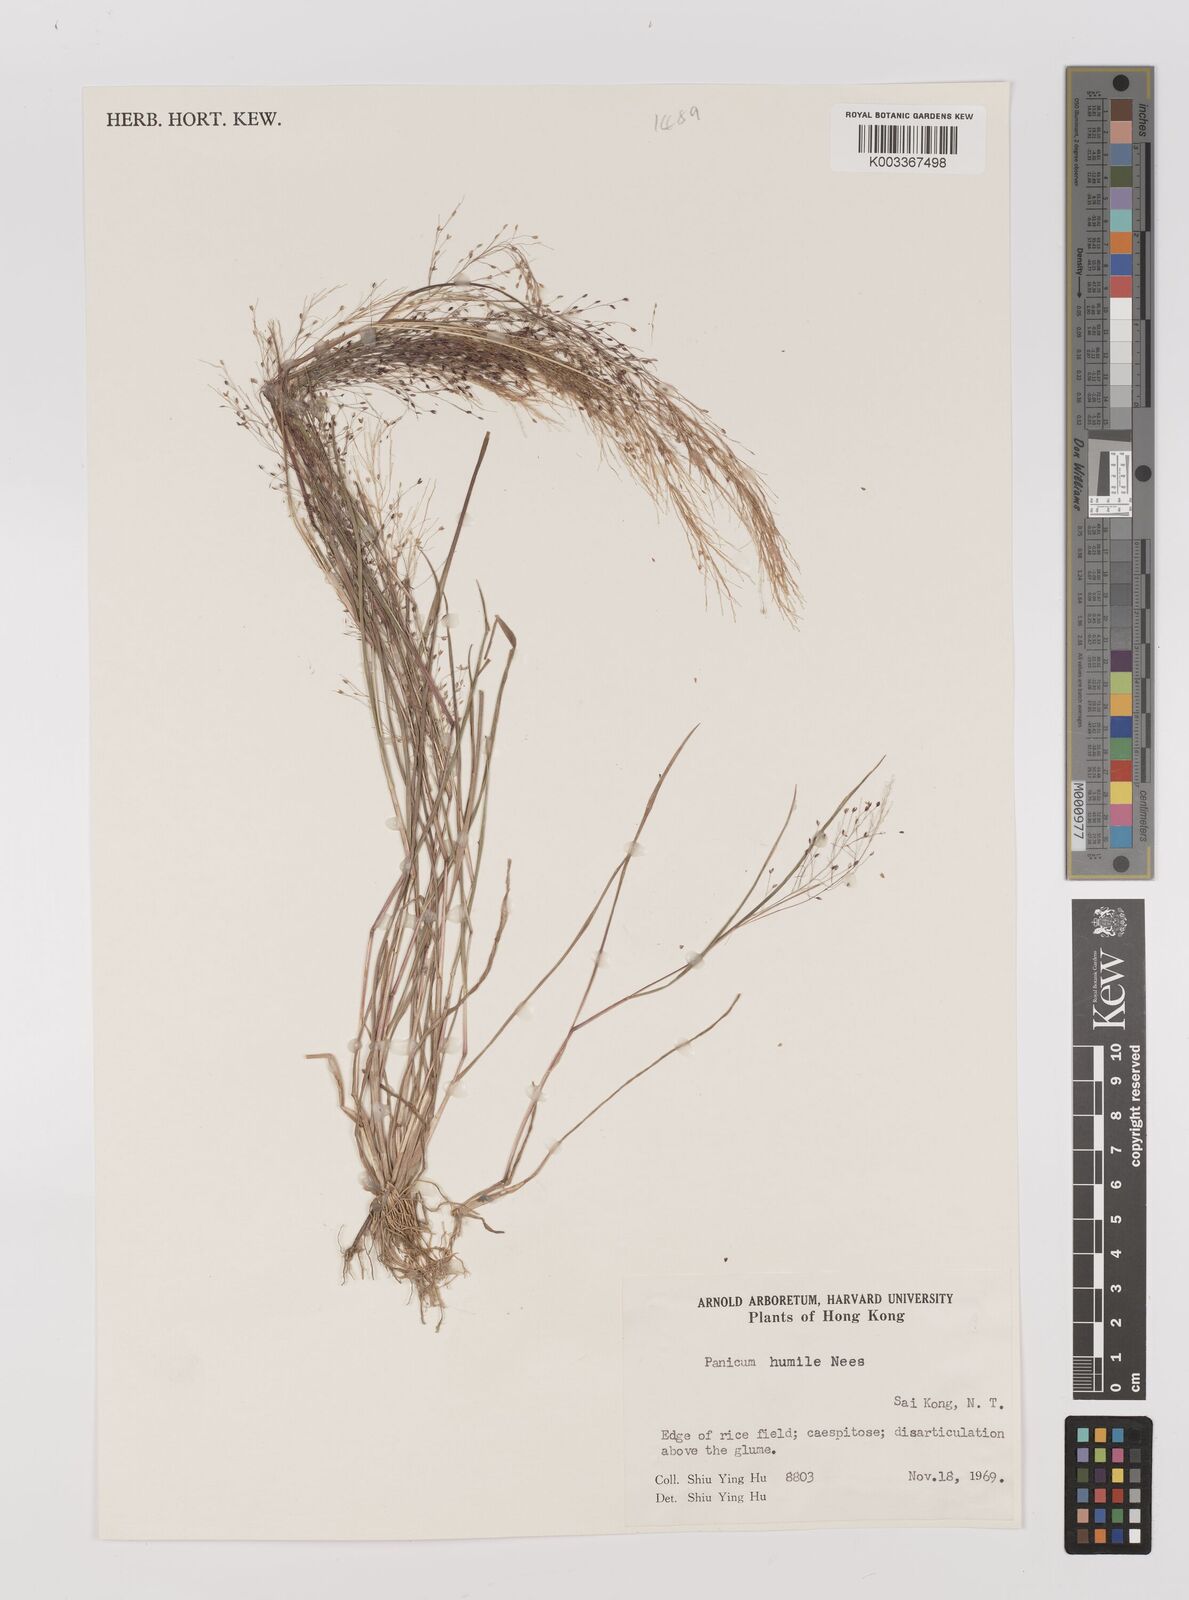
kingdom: Plantae
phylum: Tracheophyta
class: Liliopsida
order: Poales
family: Poaceae
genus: Panicum
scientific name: Panicum
